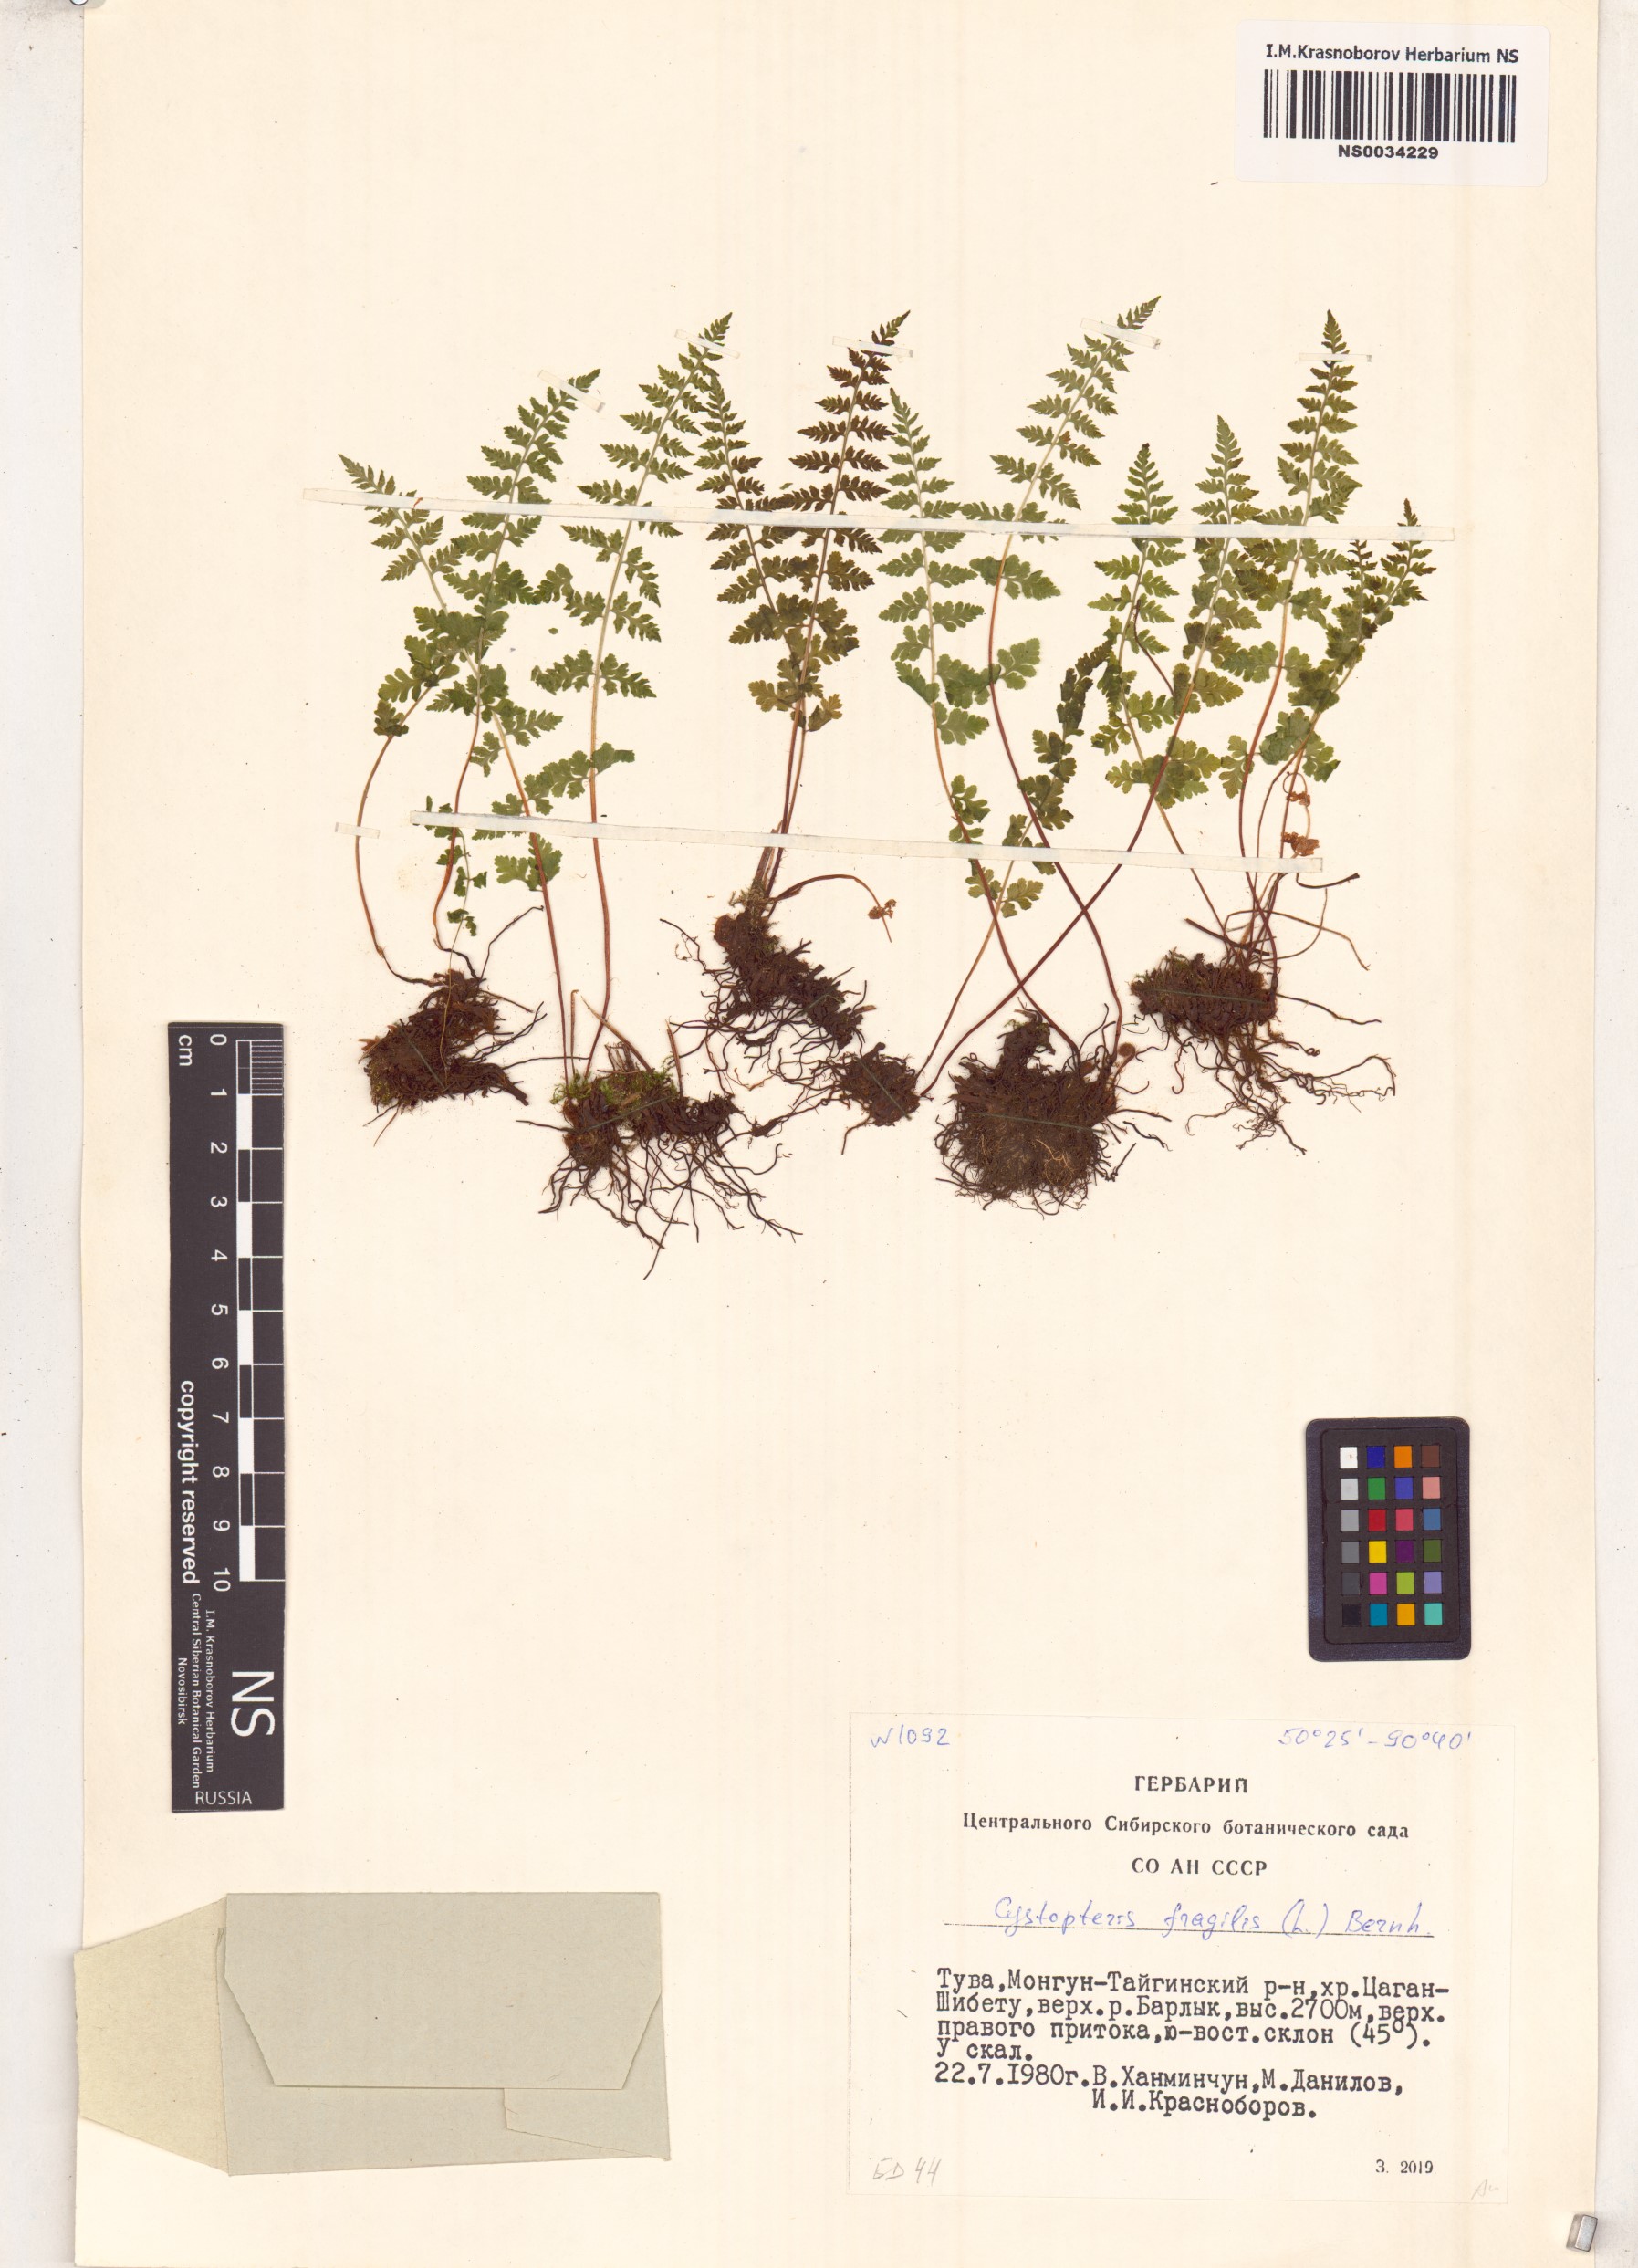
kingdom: Plantae
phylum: Tracheophyta
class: Polypodiopsida
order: Polypodiales
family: Cystopteridaceae
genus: Cystopteris
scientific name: Cystopteris fragilis
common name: Brittle bladder fern
